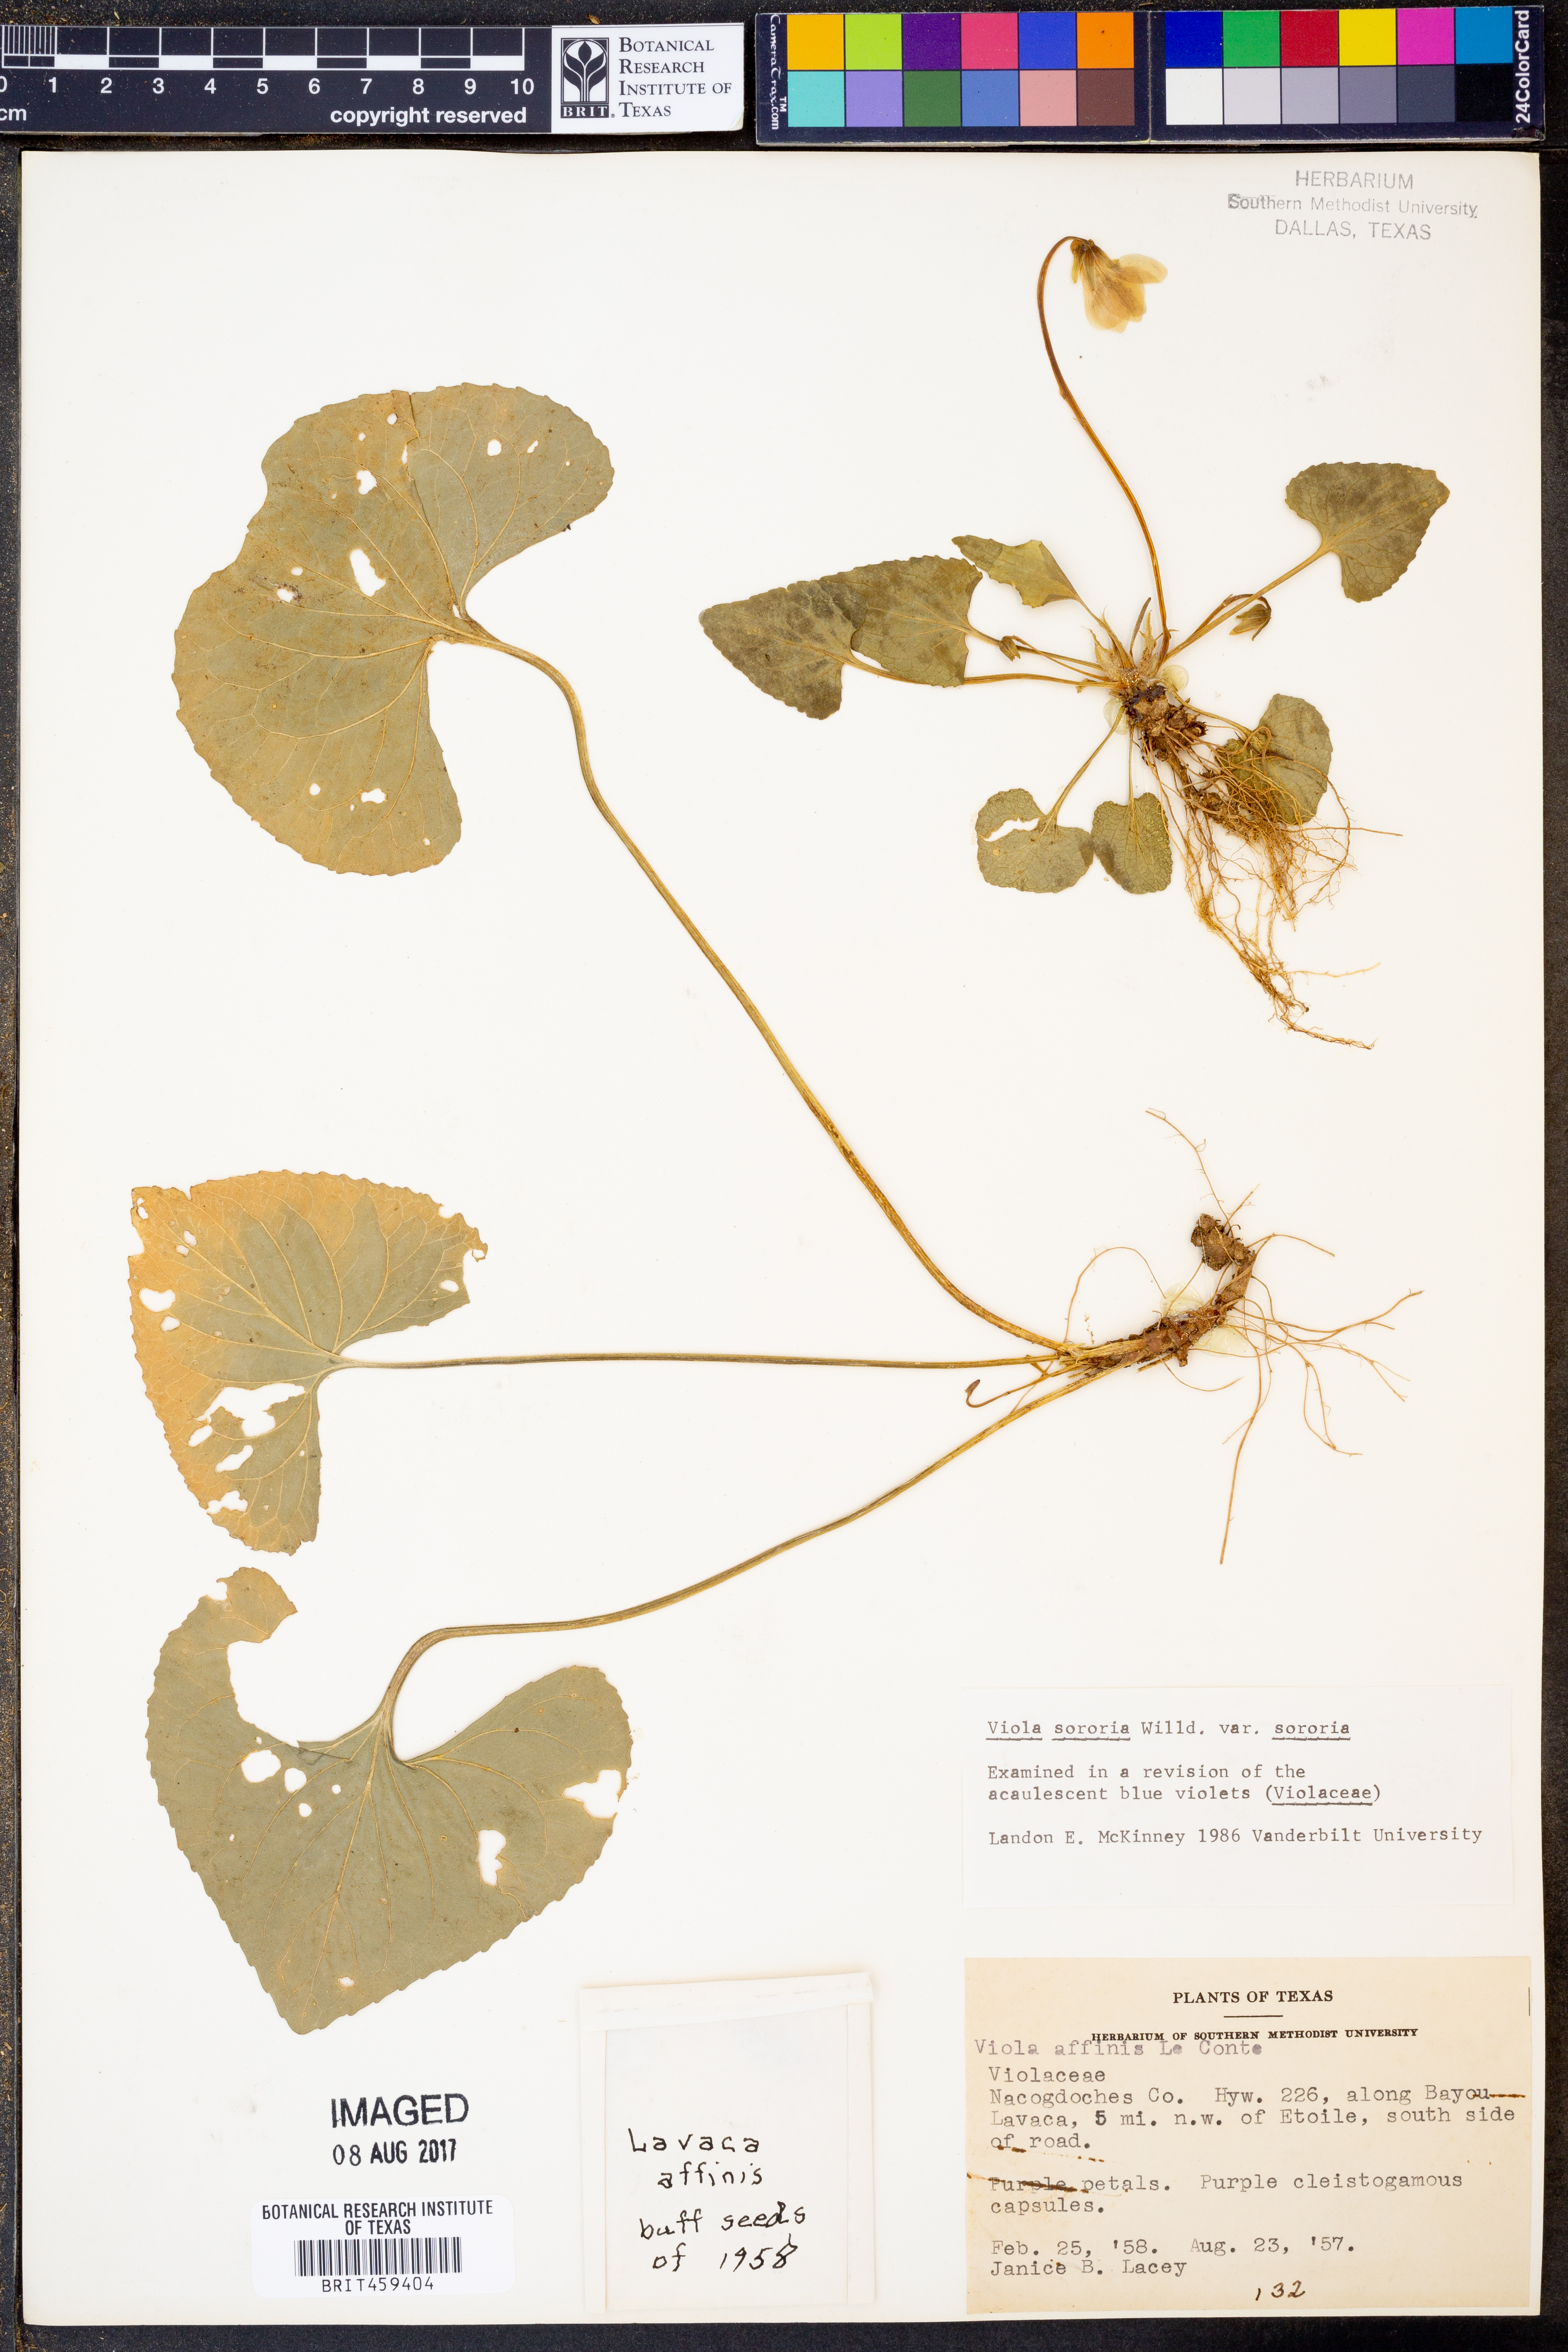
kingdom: Plantae
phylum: Tracheophyta
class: Magnoliopsida
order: Malpighiales
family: Violaceae
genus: Viola
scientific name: Viola sororia
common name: Dooryard violet
